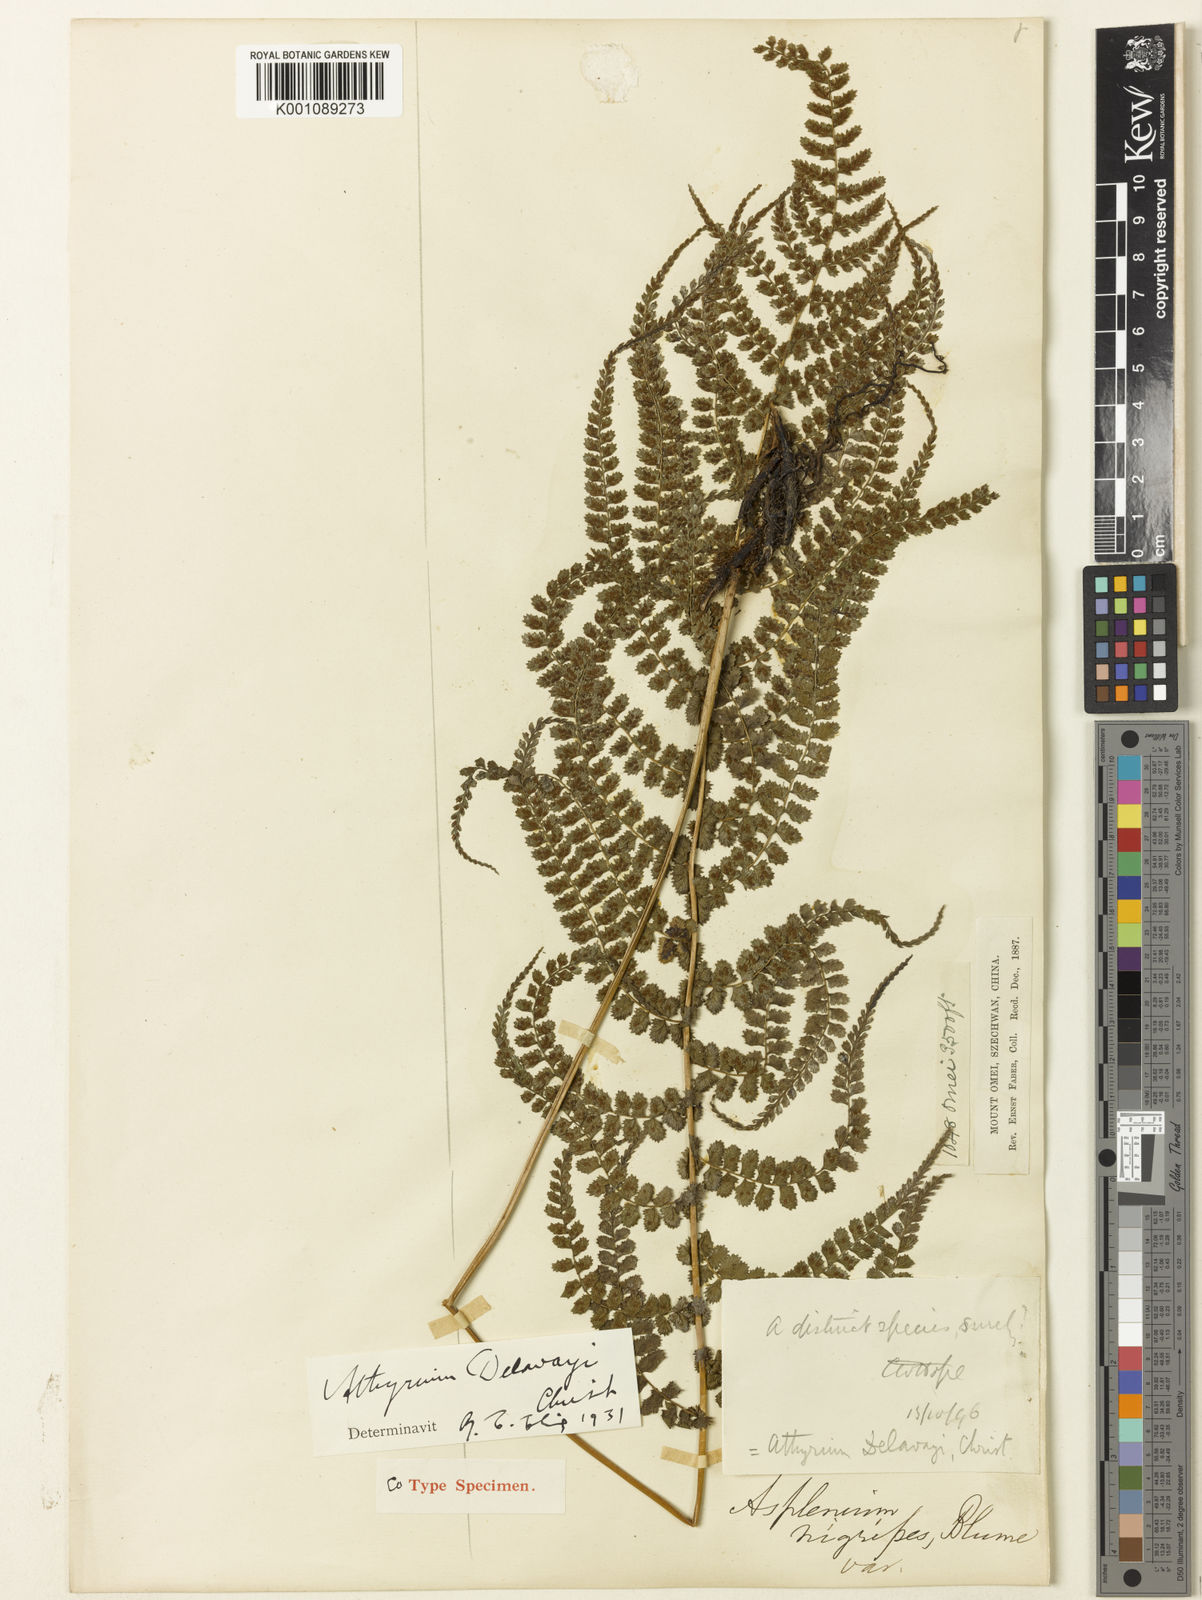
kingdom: Plantae
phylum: Tracheophyta
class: Polypodiopsida
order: Polypodiales
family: Athyriaceae
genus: Athyrium
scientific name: Athyrium delavayi
